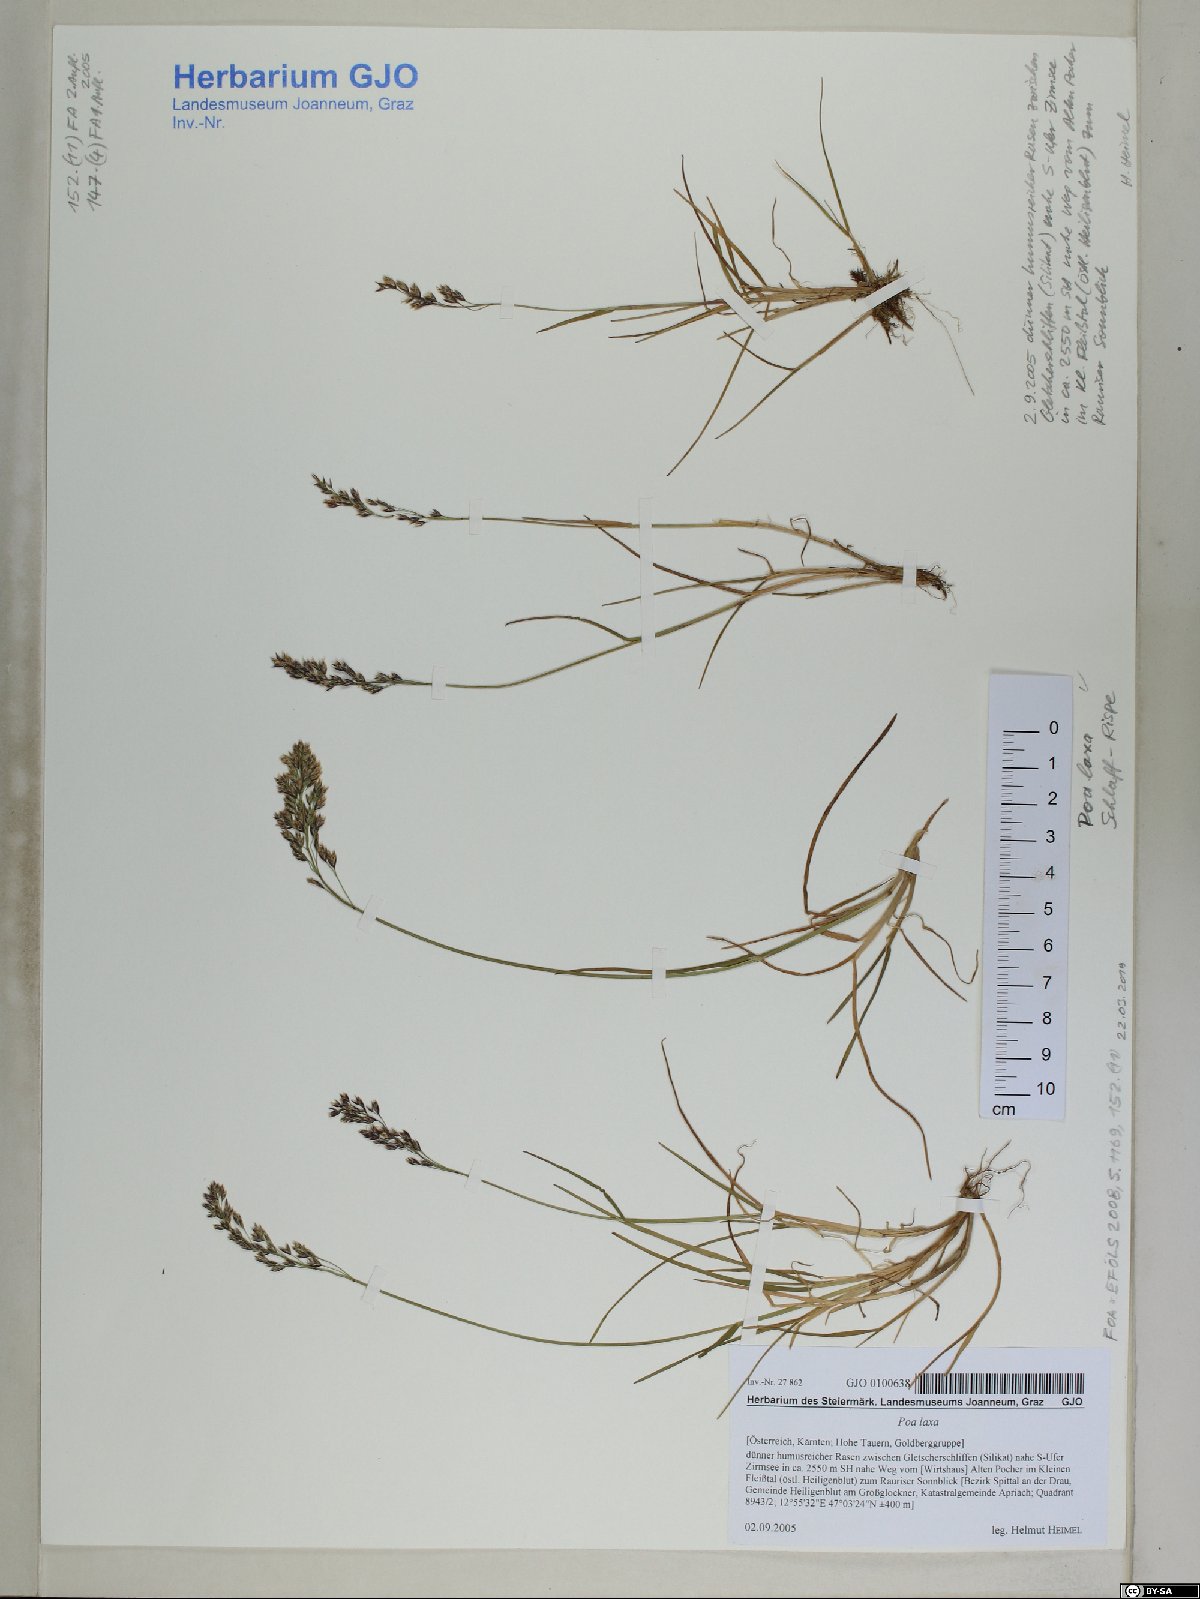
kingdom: Plantae
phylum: Tracheophyta
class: Liliopsida
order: Poales
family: Poaceae
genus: Poa
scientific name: Poa laxa
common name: Lax bluegrass
